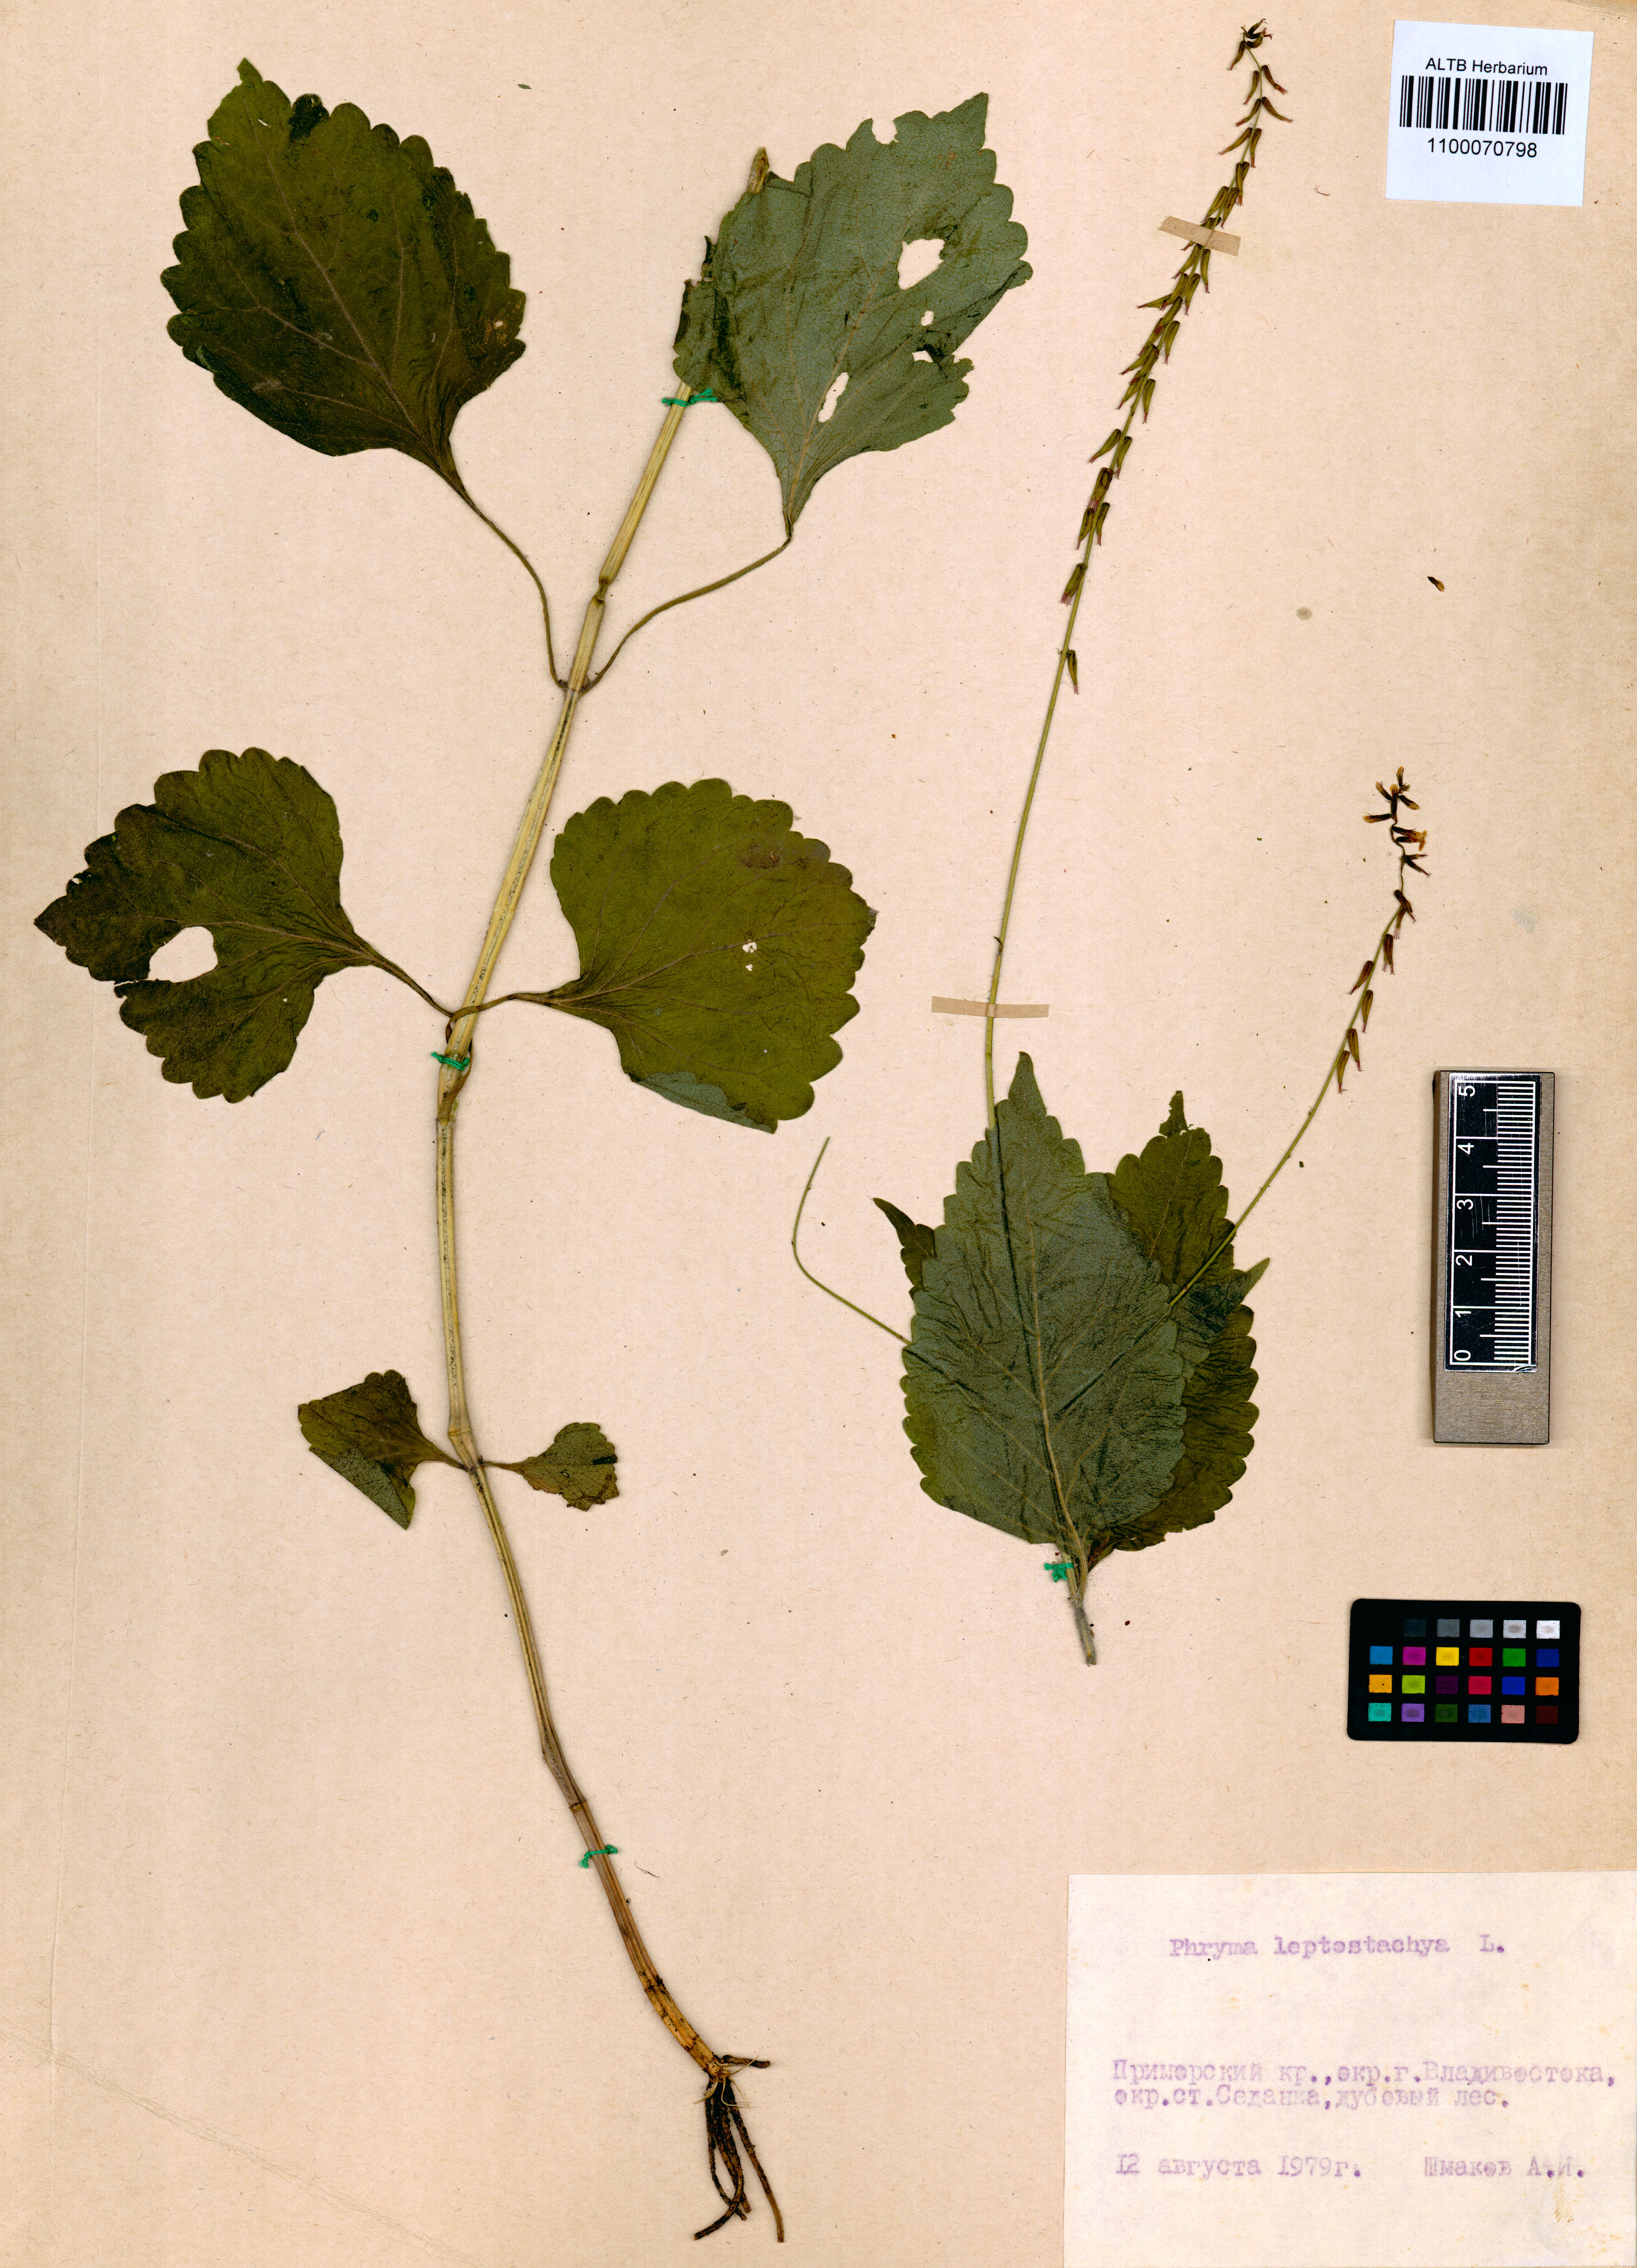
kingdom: Plantae
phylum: Tracheophyta
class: Magnoliopsida
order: Lamiales
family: Phrymaceae
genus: Phryma
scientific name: Phryma leptostachya
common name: American lopseed
